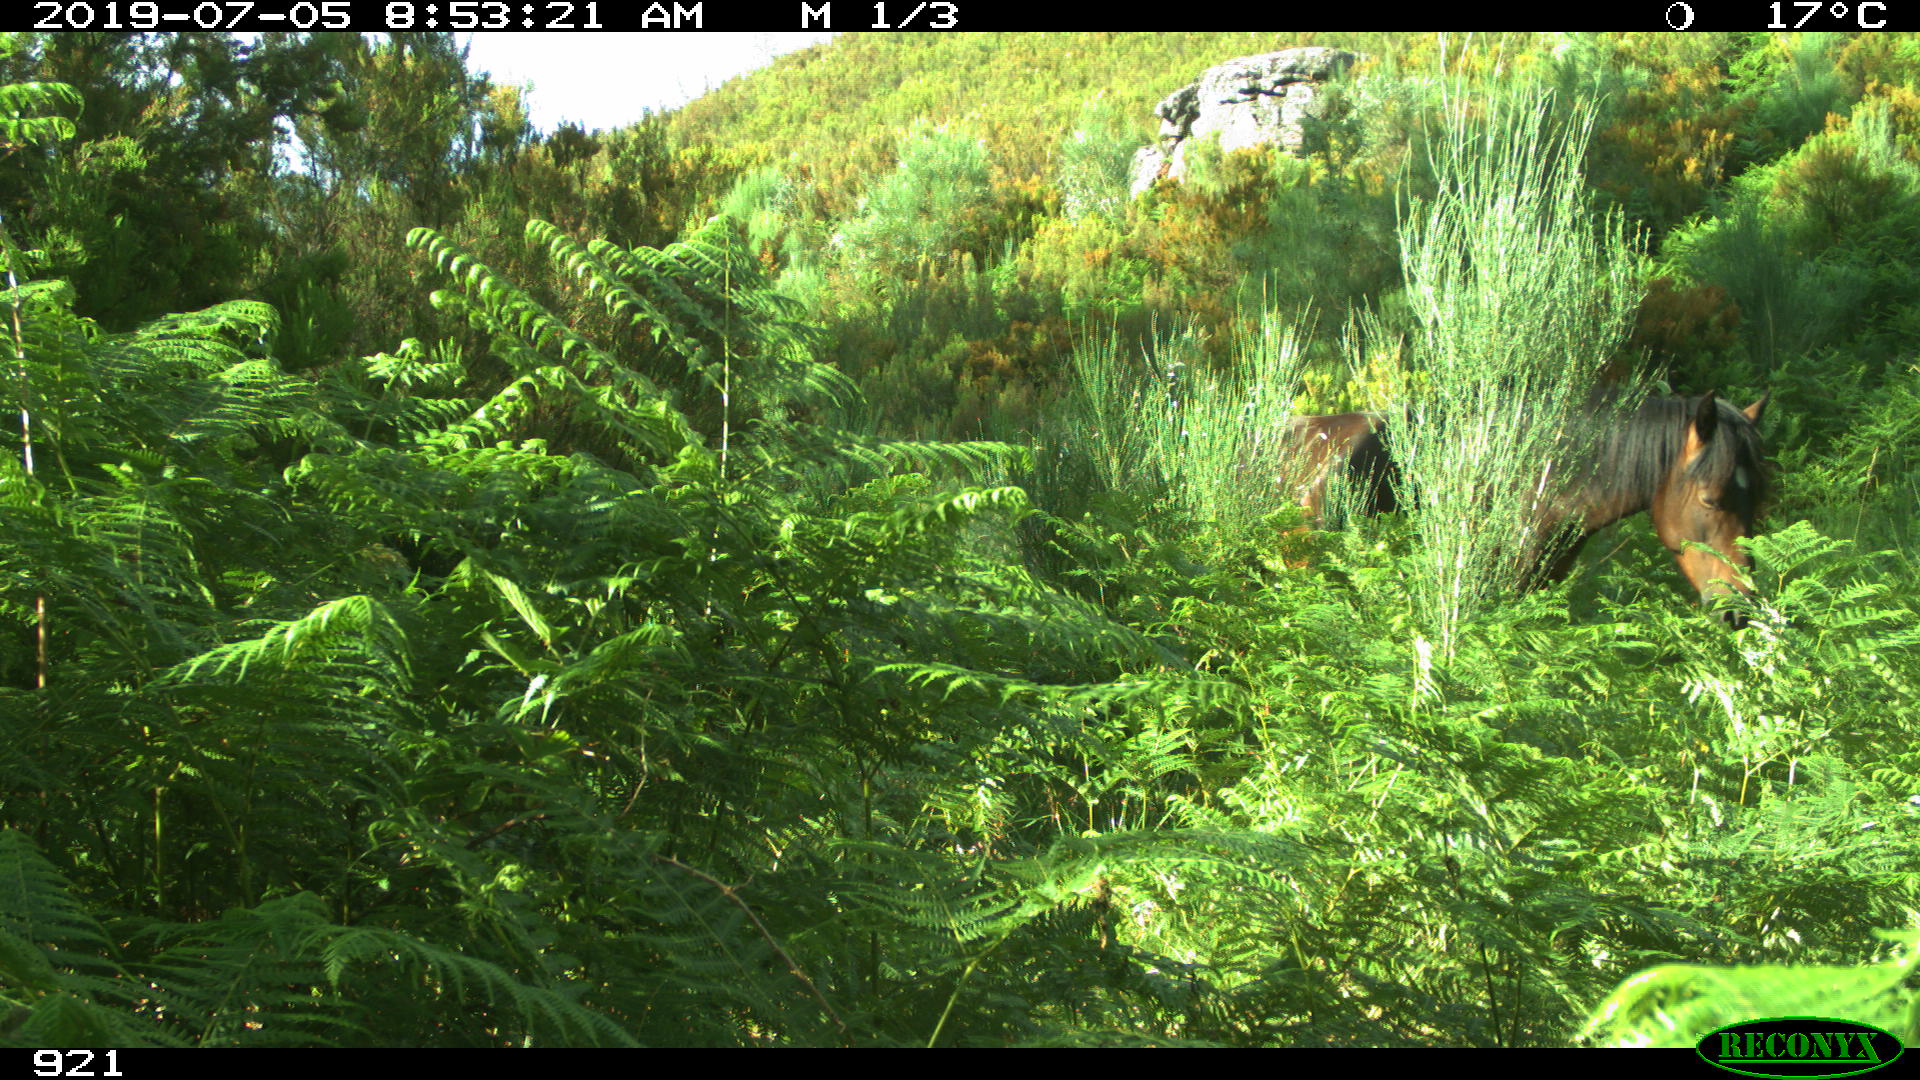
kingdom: Animalia
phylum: Chordata
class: Mammalia
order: Perissodactyla
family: Equidae
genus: Equus
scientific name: Equus caballus
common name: Horse
